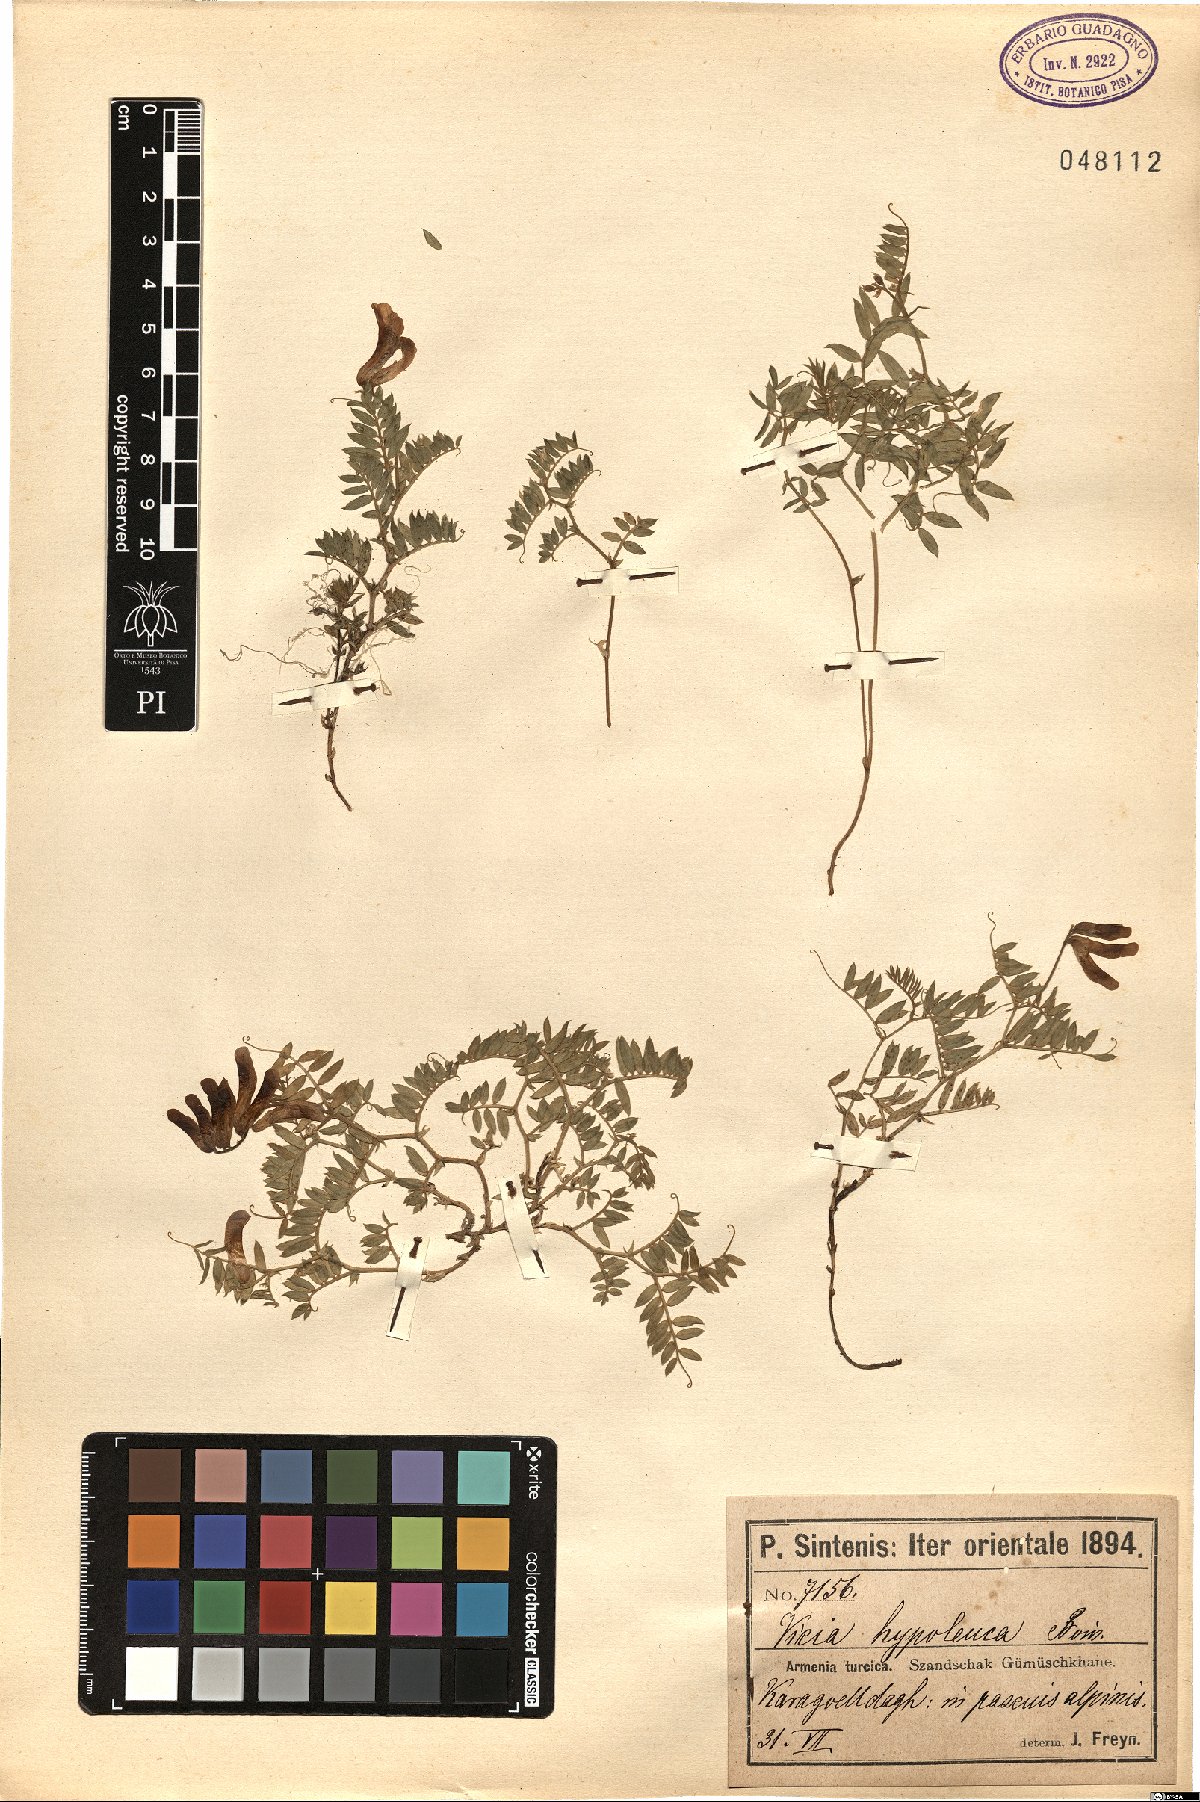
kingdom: Plantae
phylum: Tracheophyta
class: Magnoliopsida
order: Fabales
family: Fabaceae
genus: Vicia
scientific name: Vicia alpestris
